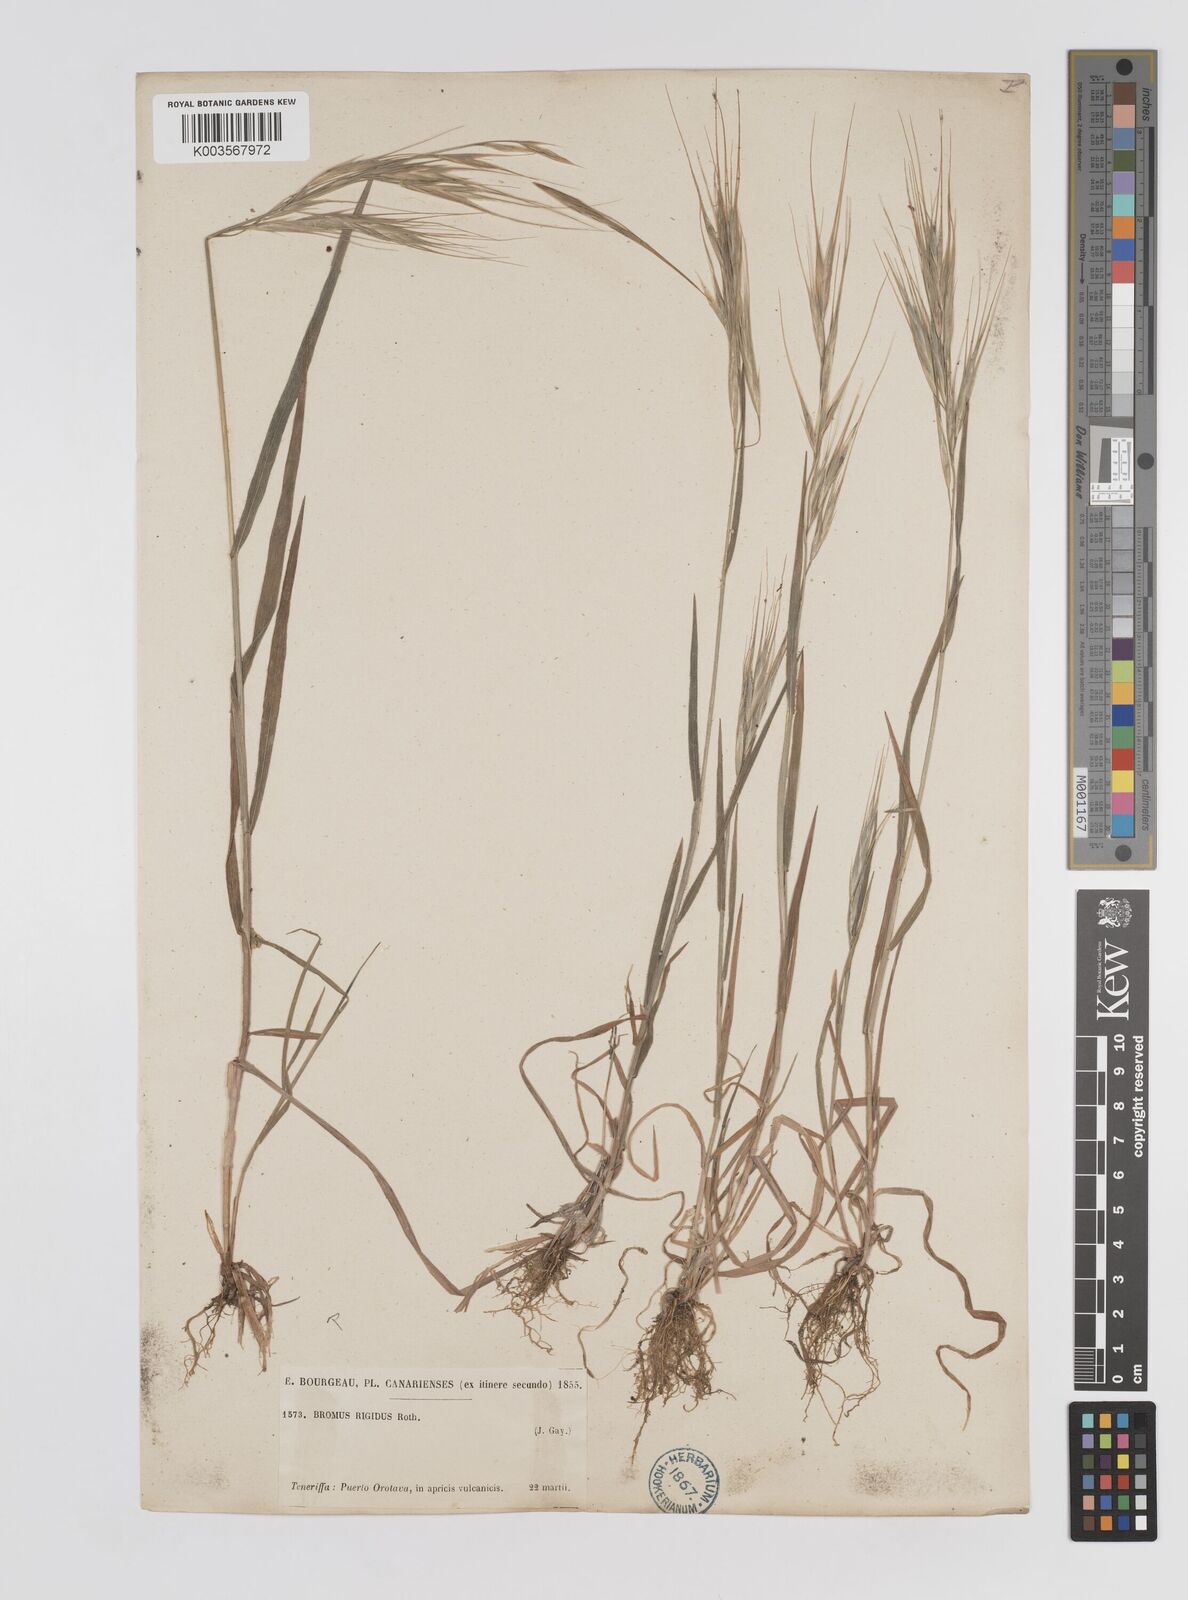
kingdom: Plantae
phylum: Tracheophyta
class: Liliopsida
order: Poales
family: Poaceae
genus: Bromus
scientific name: Bromus rigidus
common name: Ripgut brome
